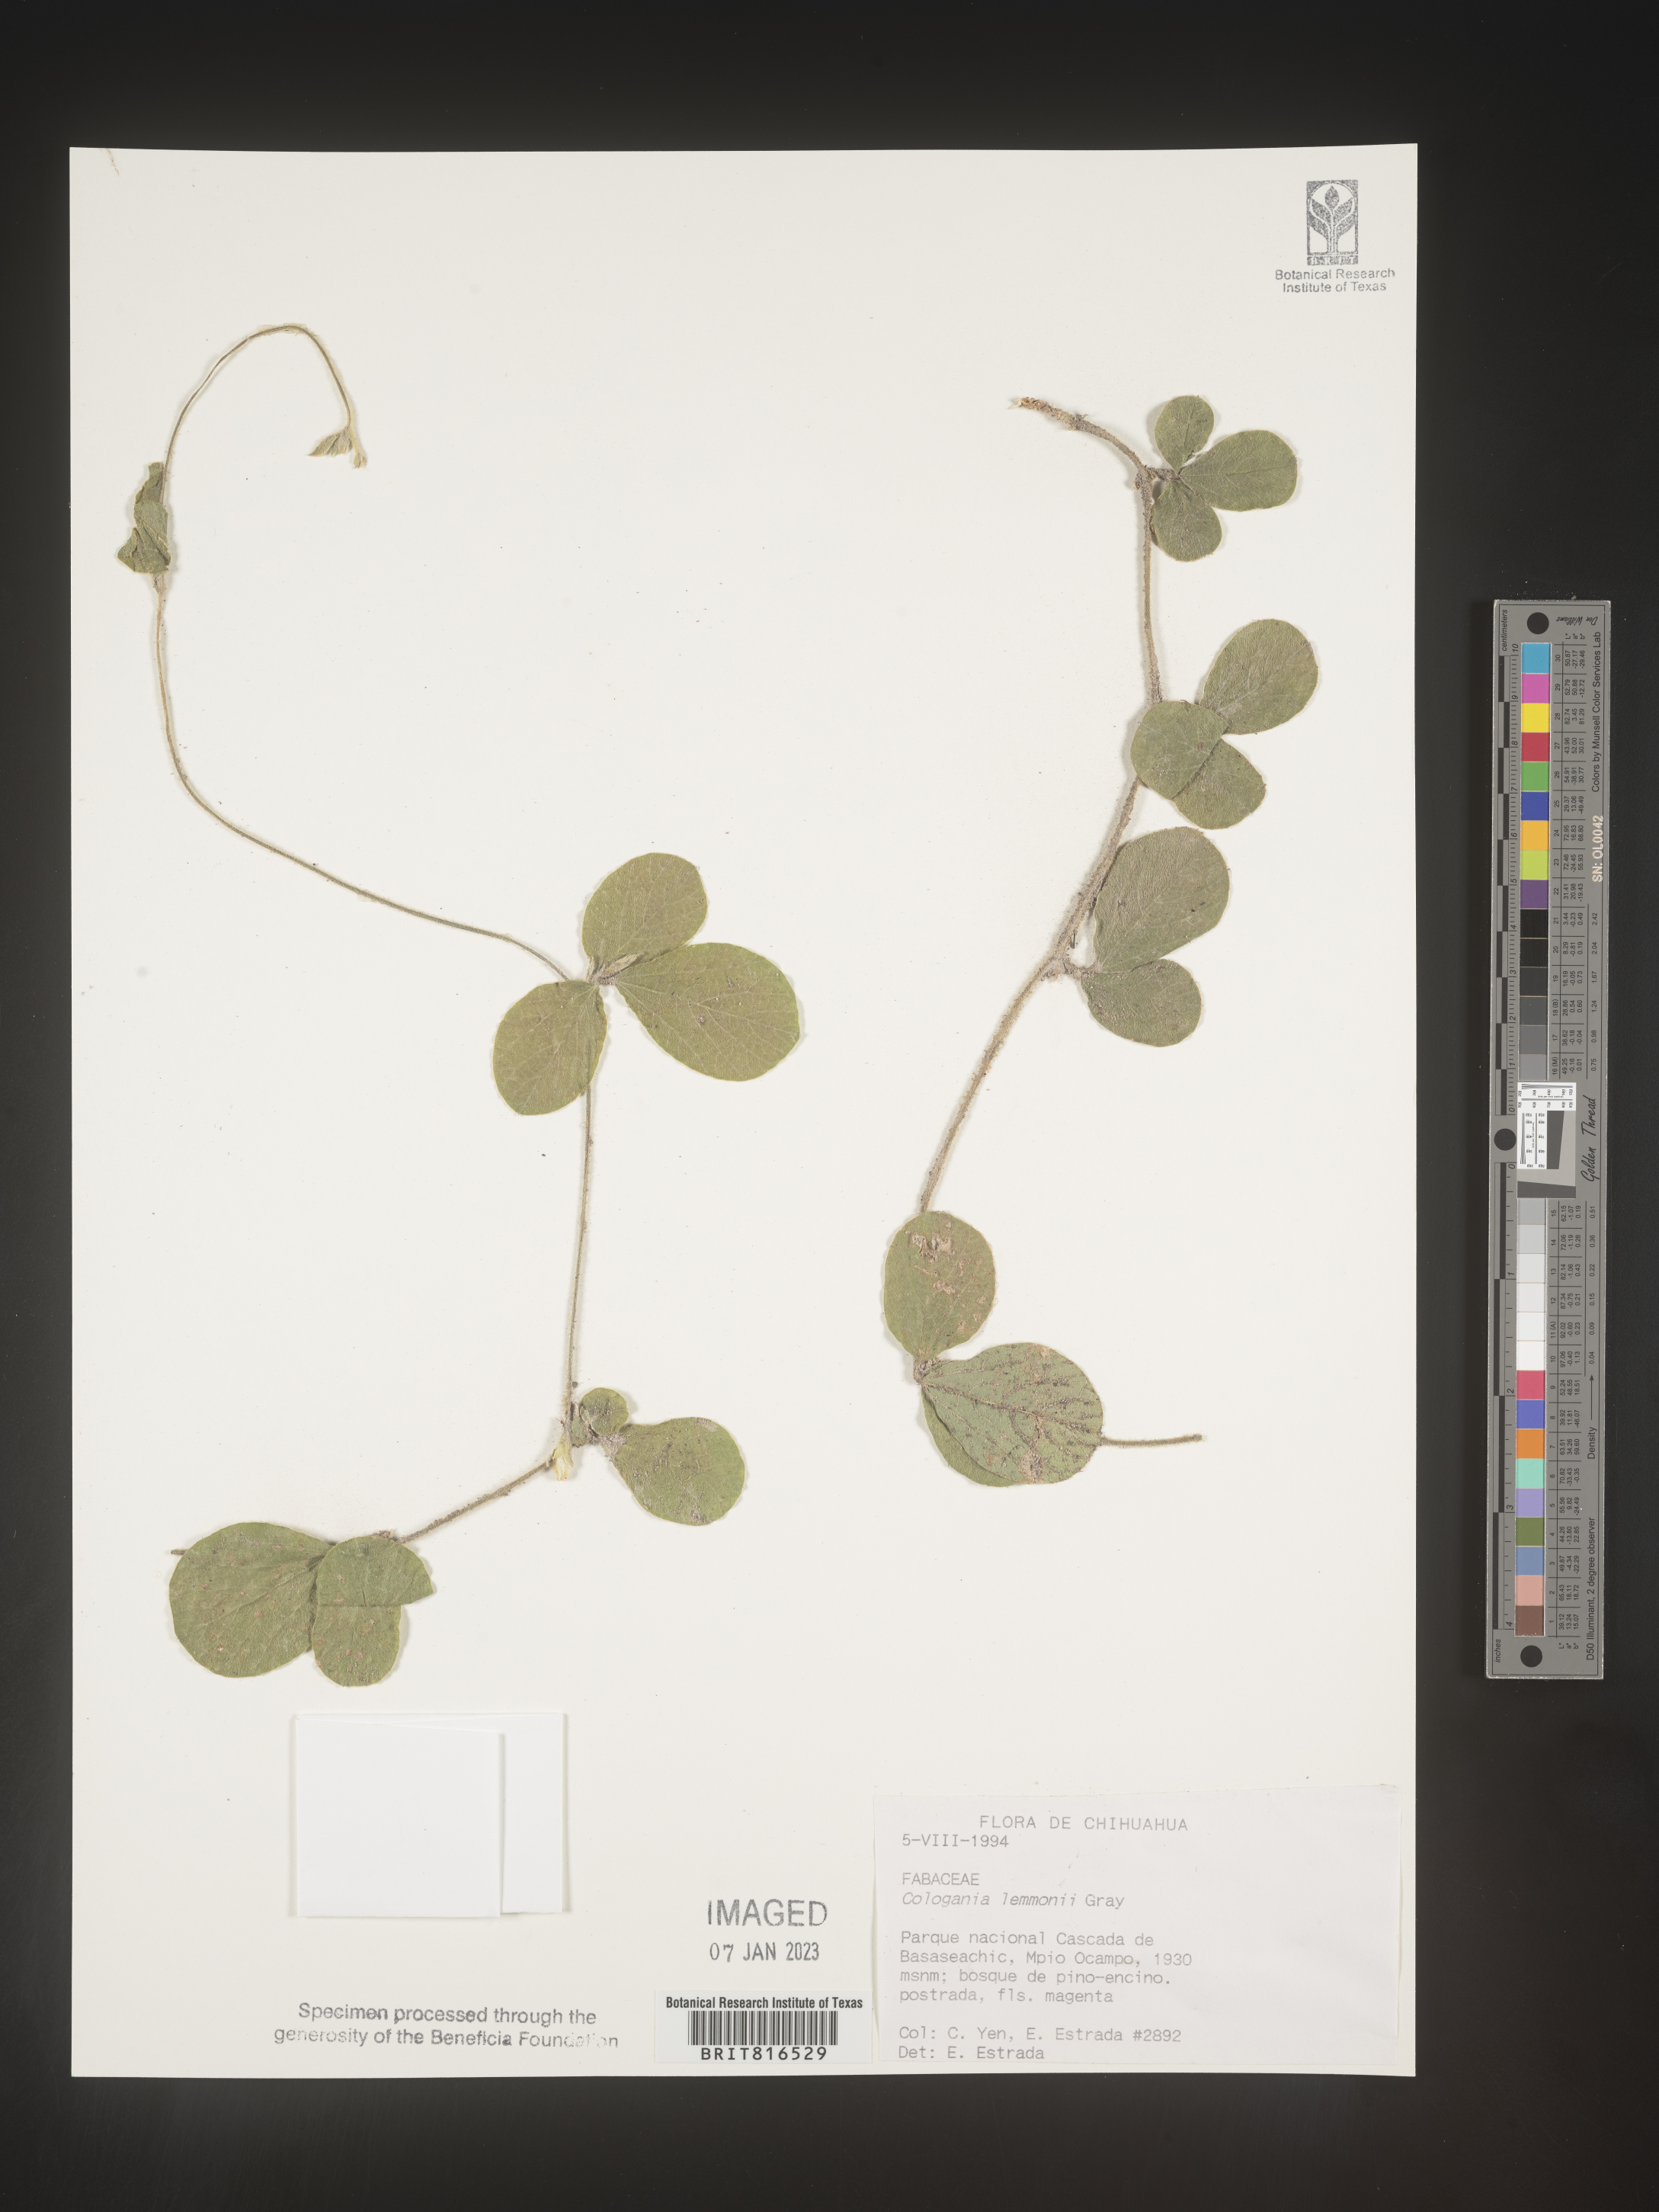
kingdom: Plantae
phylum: Tracheophyta
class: Magnoliopsida
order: Fabales
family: Fabaceae
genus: Cologania
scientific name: Cologania obovata
